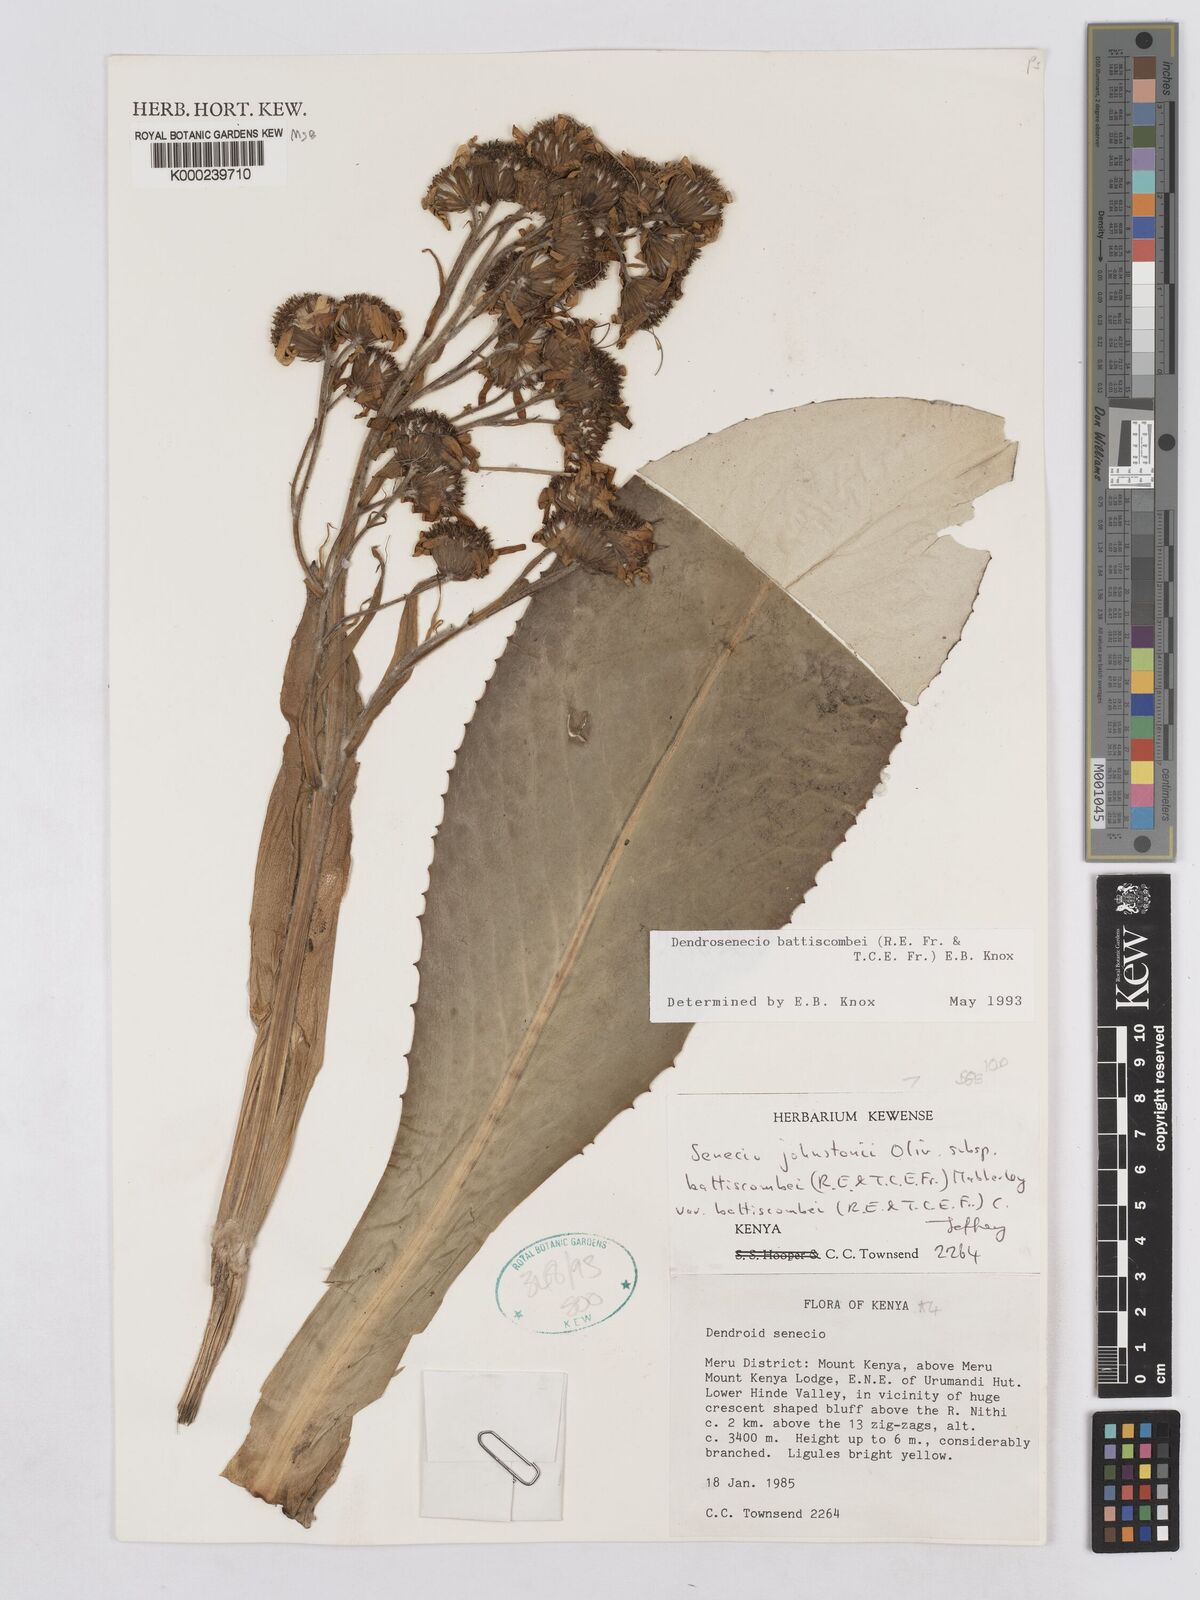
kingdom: Plantae
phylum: Tracheophyta
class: Magnoliopsida
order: Asterales
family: Asteraceae
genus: Dendrosenecio
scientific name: Dendrosenecio battiscombei
